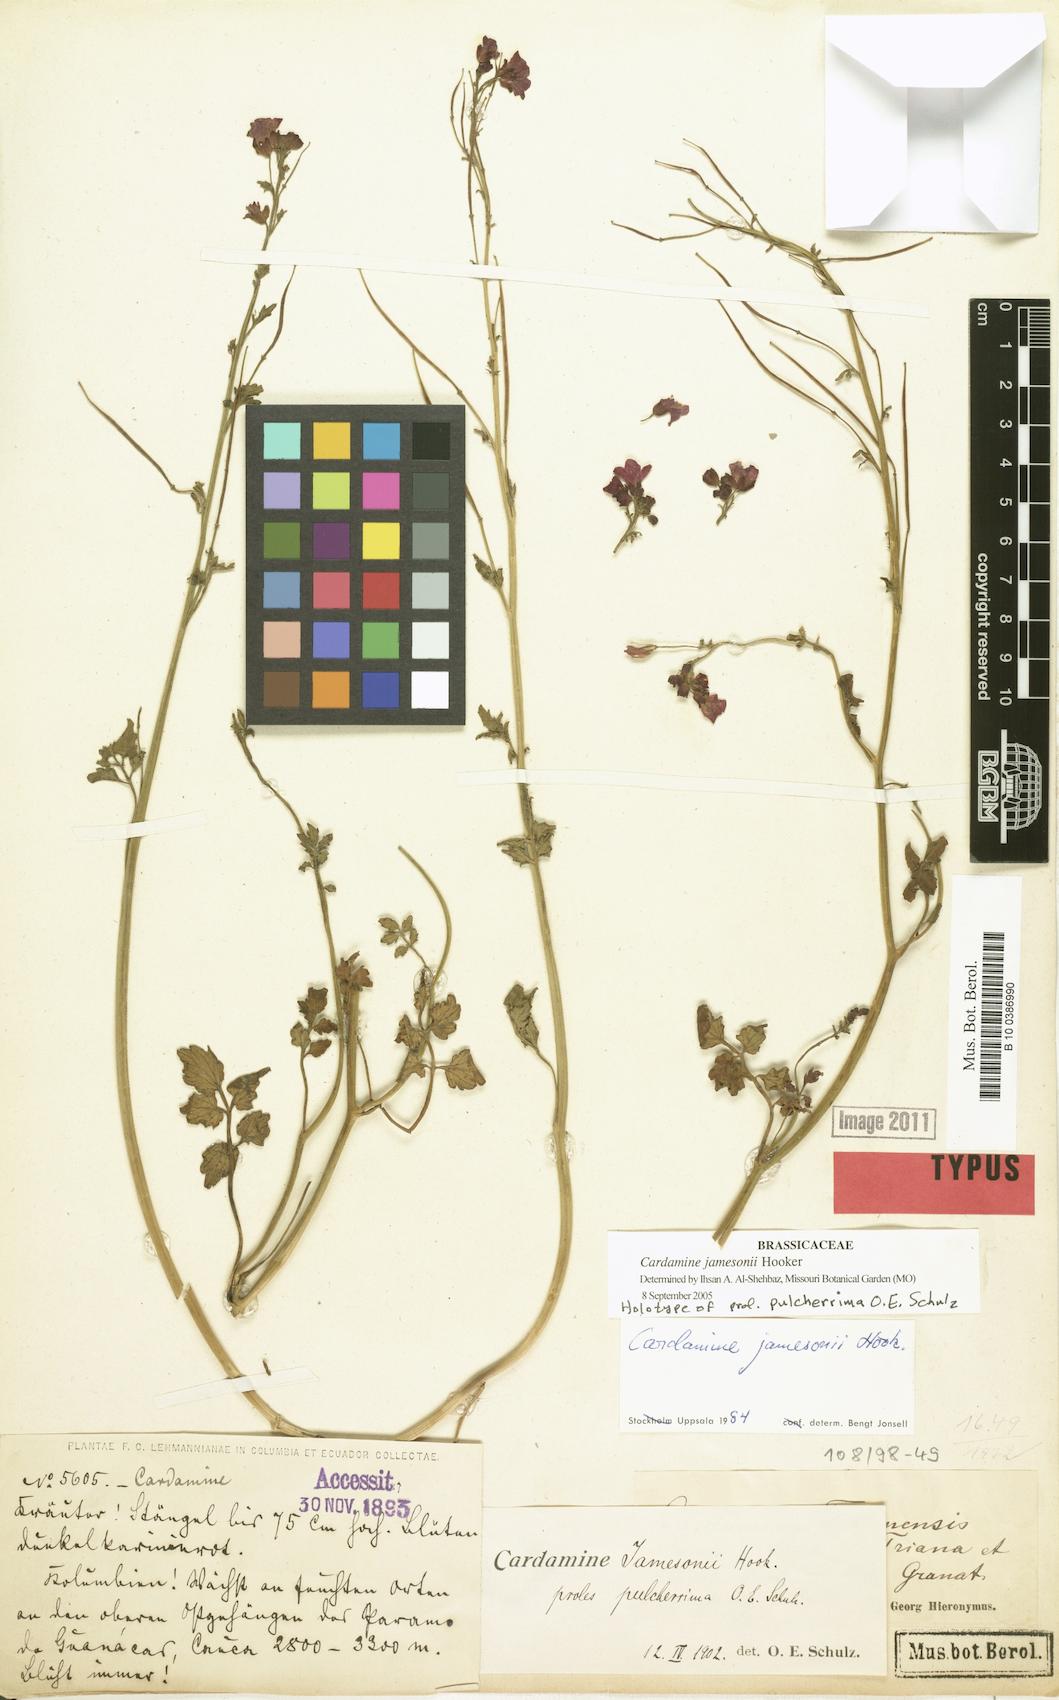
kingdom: Plantae
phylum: Tracheophyta
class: Magnoliopsida
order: Brassicales
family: Brassicaceae
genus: Cardamine
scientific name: Cardamine jamesonii
